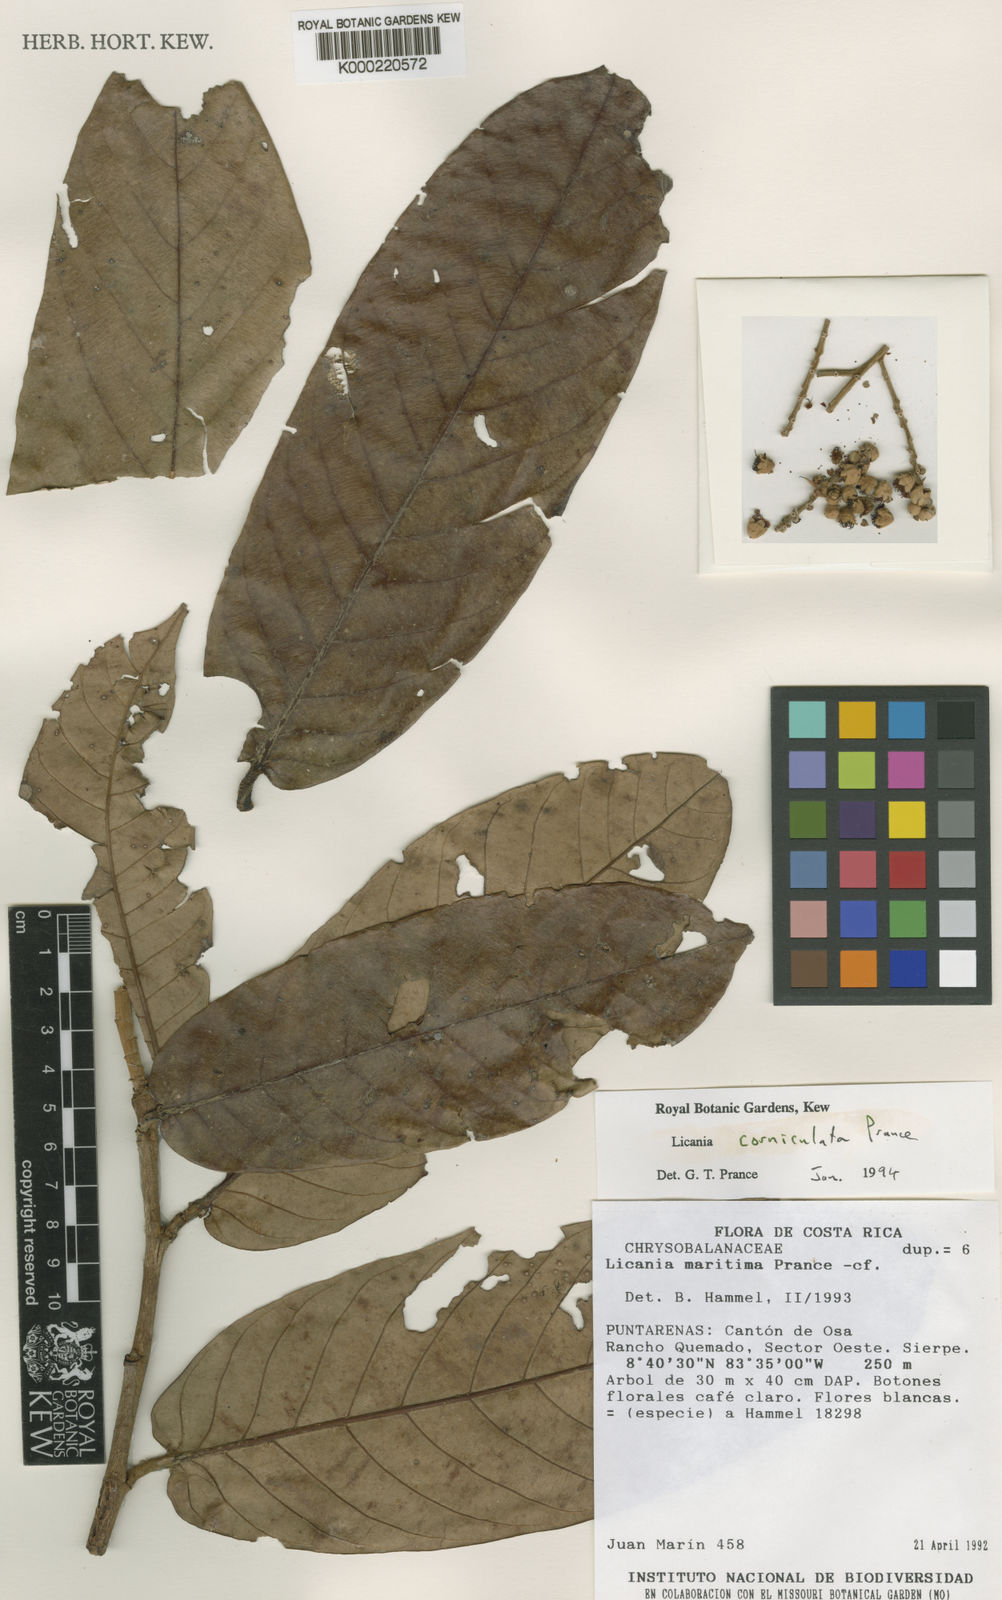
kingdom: Plantae
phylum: Tracheophyta
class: Magnoliopsida
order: Malpighiales
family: Chrysobalanaceae
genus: Moquilea
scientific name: Moquilea corniculata
